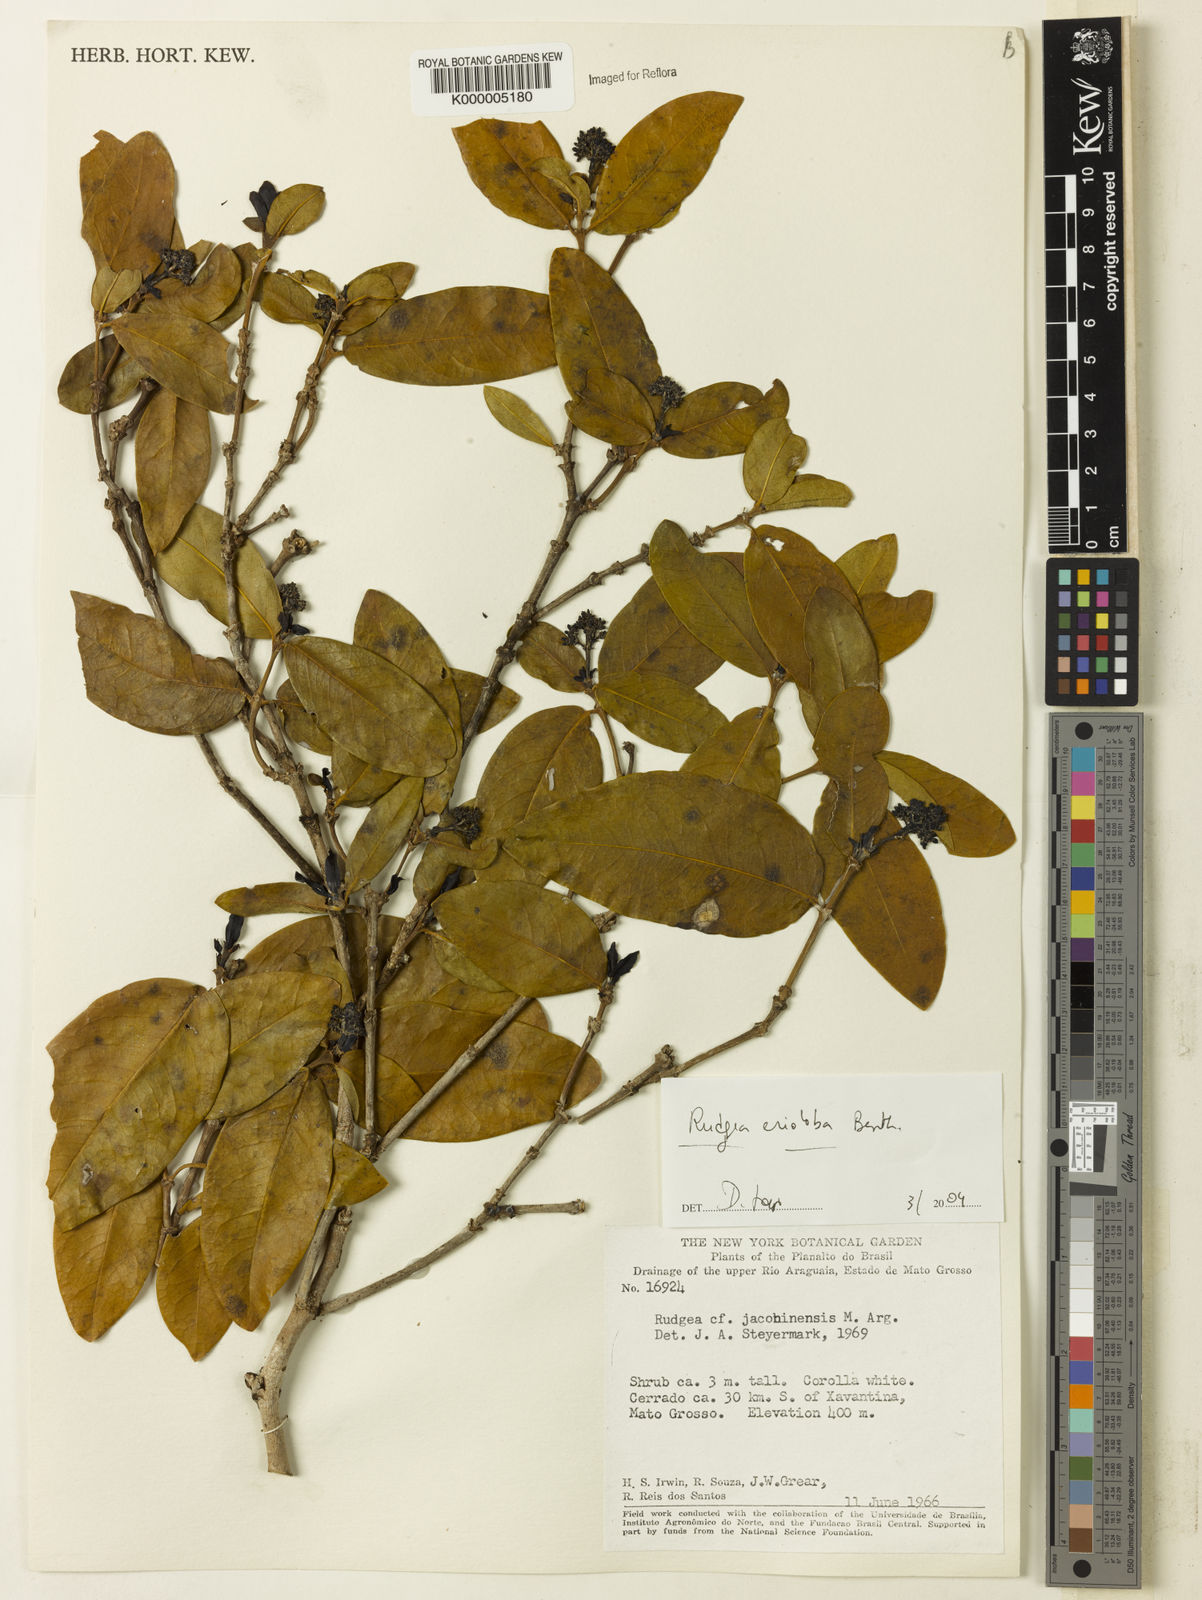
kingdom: Plantae
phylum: Tracheophyta
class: Magnoliopsida
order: Gentianales
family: Rubiaceae
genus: Rudgea
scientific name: Rudgea erioloba
